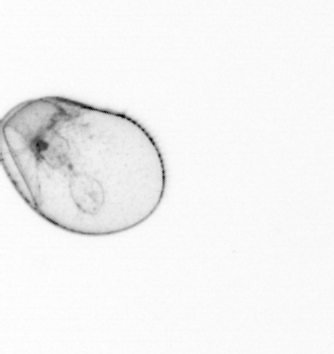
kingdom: Chromista
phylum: Myzozoa
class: Dinophyceae
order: Noctilucales
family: Noctilucaceae
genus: Noctiluca
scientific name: Noctiluca scintillans
